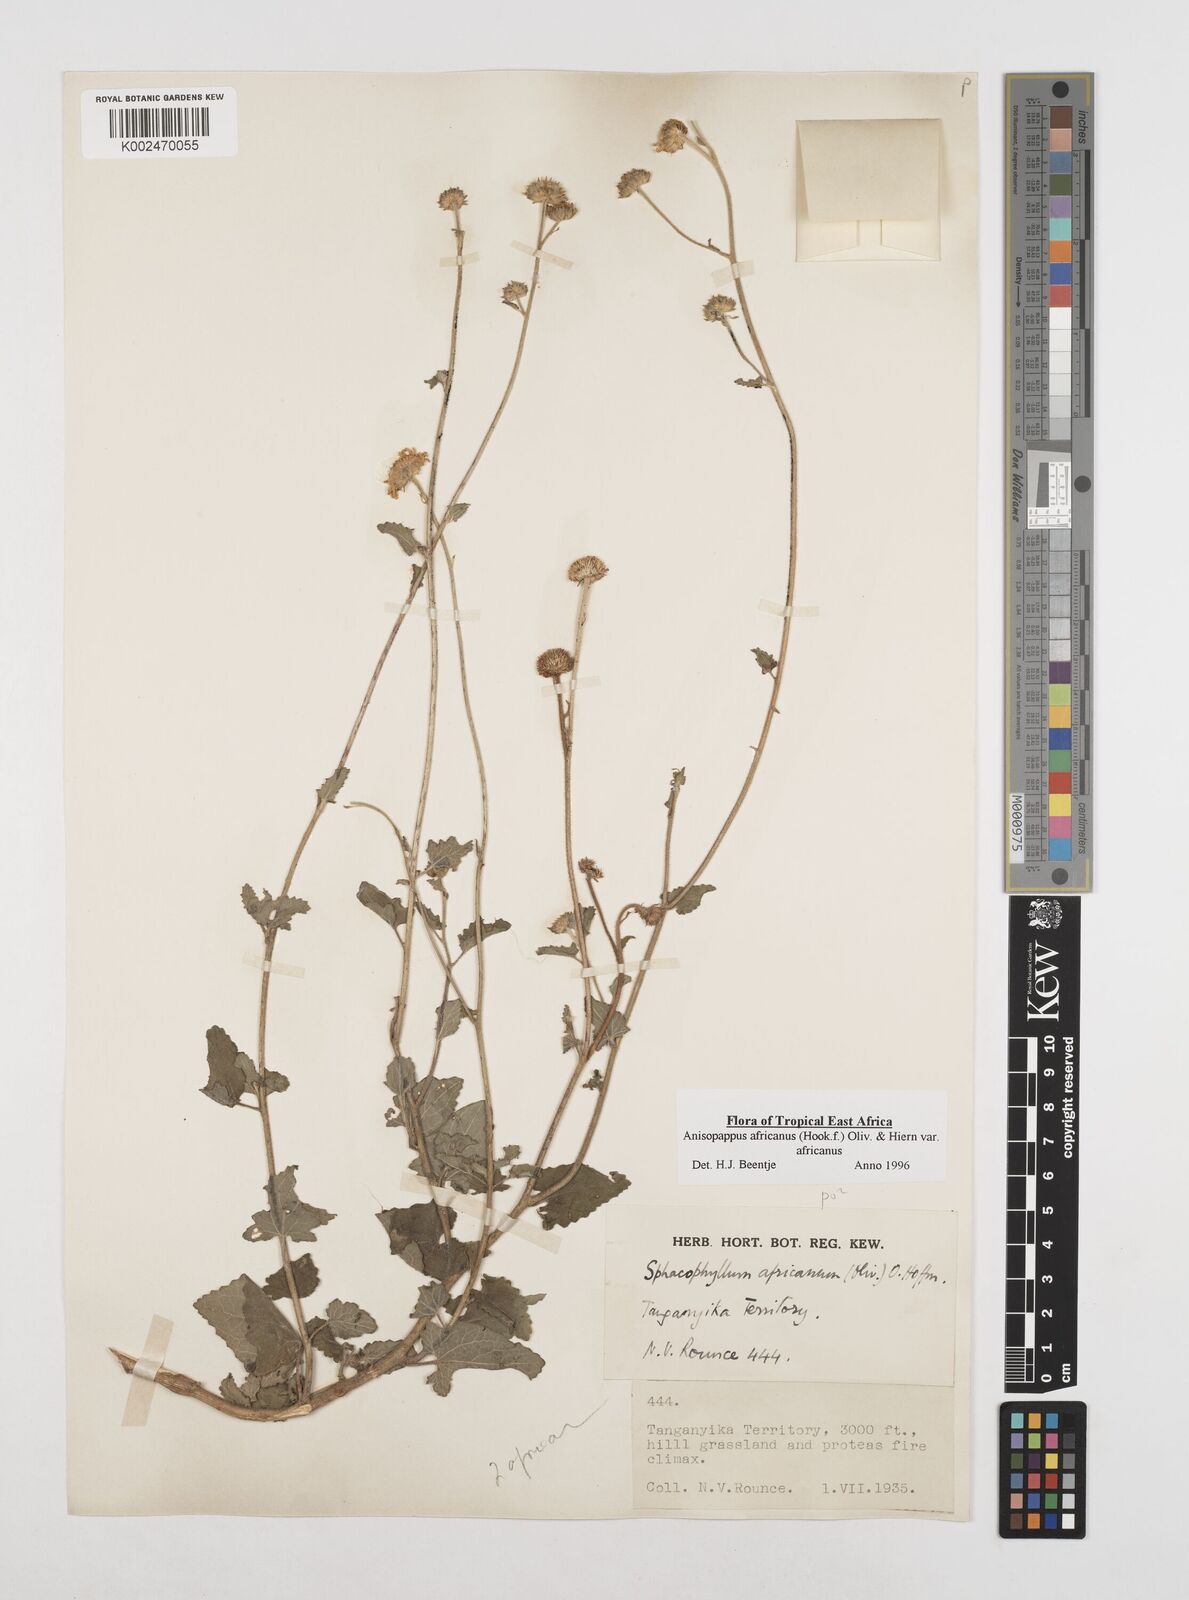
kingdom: Plantae
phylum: Tracheophyta
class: Magnoliopsida
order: Asterales
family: Asteraceae
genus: Anisopappus
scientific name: Anisopappus buchwaldii
